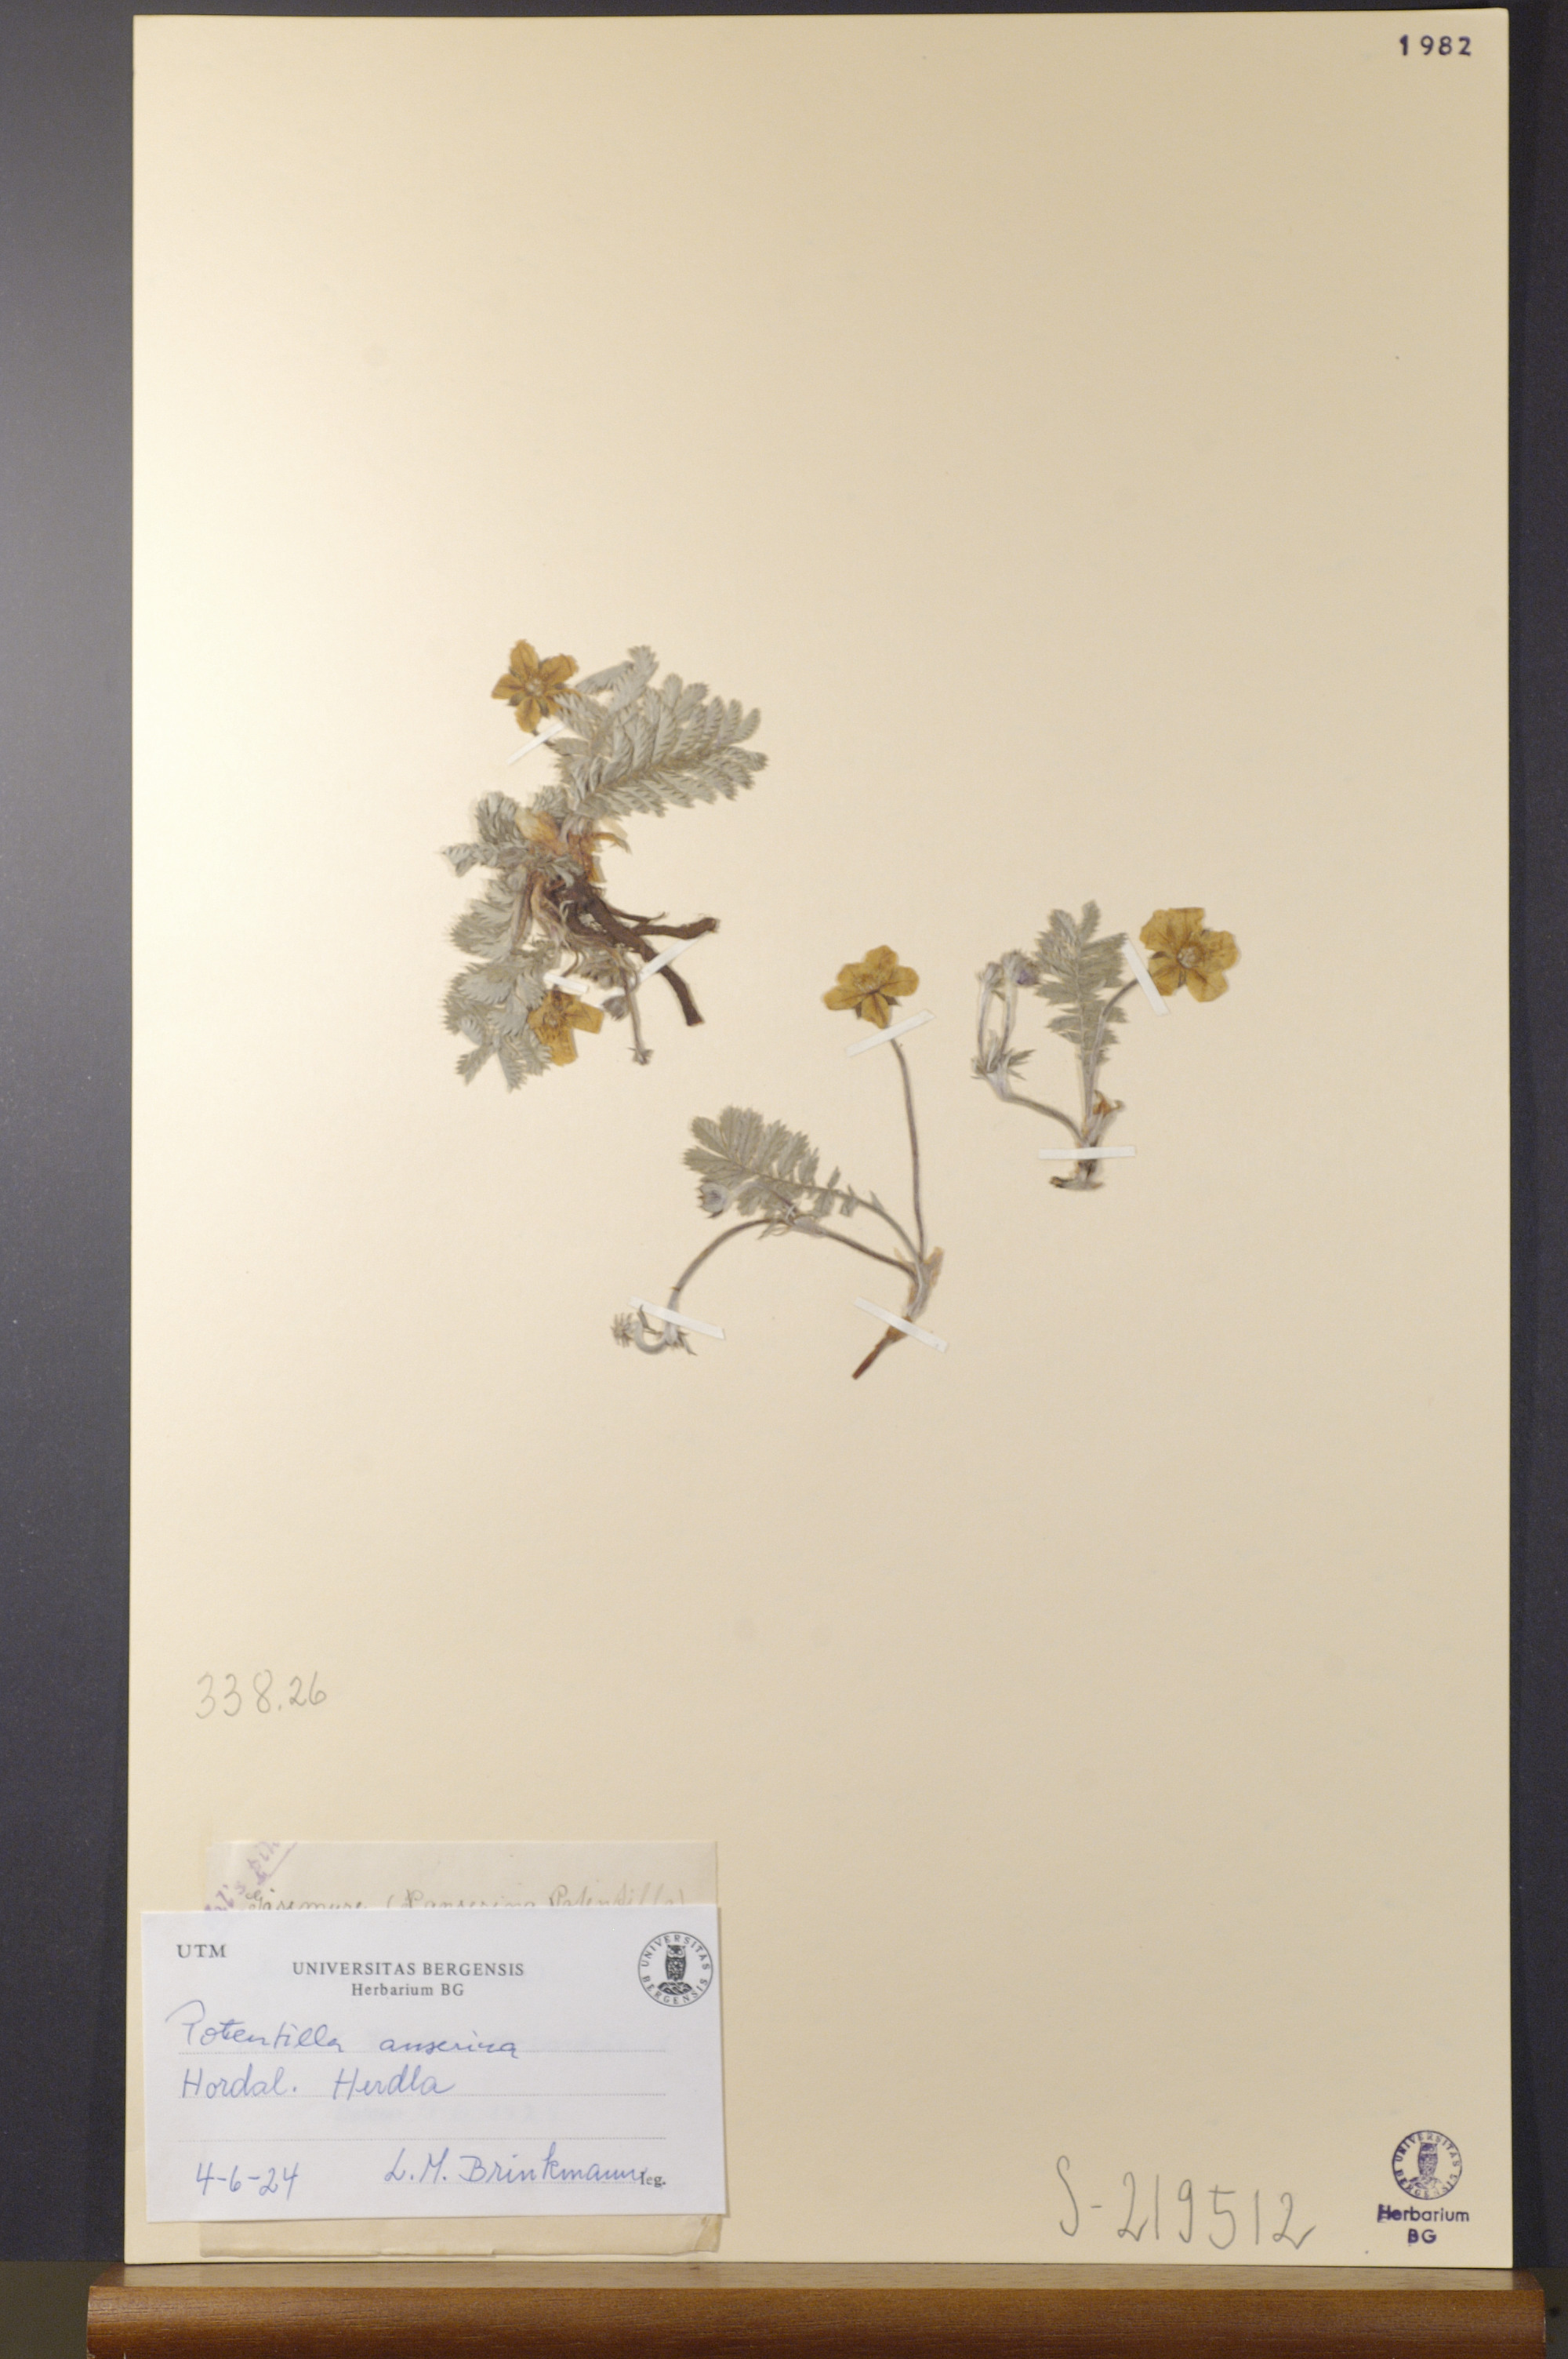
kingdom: Plantae
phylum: Tracheophyta
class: Magnoliopsida
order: Rosales
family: Rosaceae
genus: Argentina
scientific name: Argentina anserina
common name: Common silverweed
